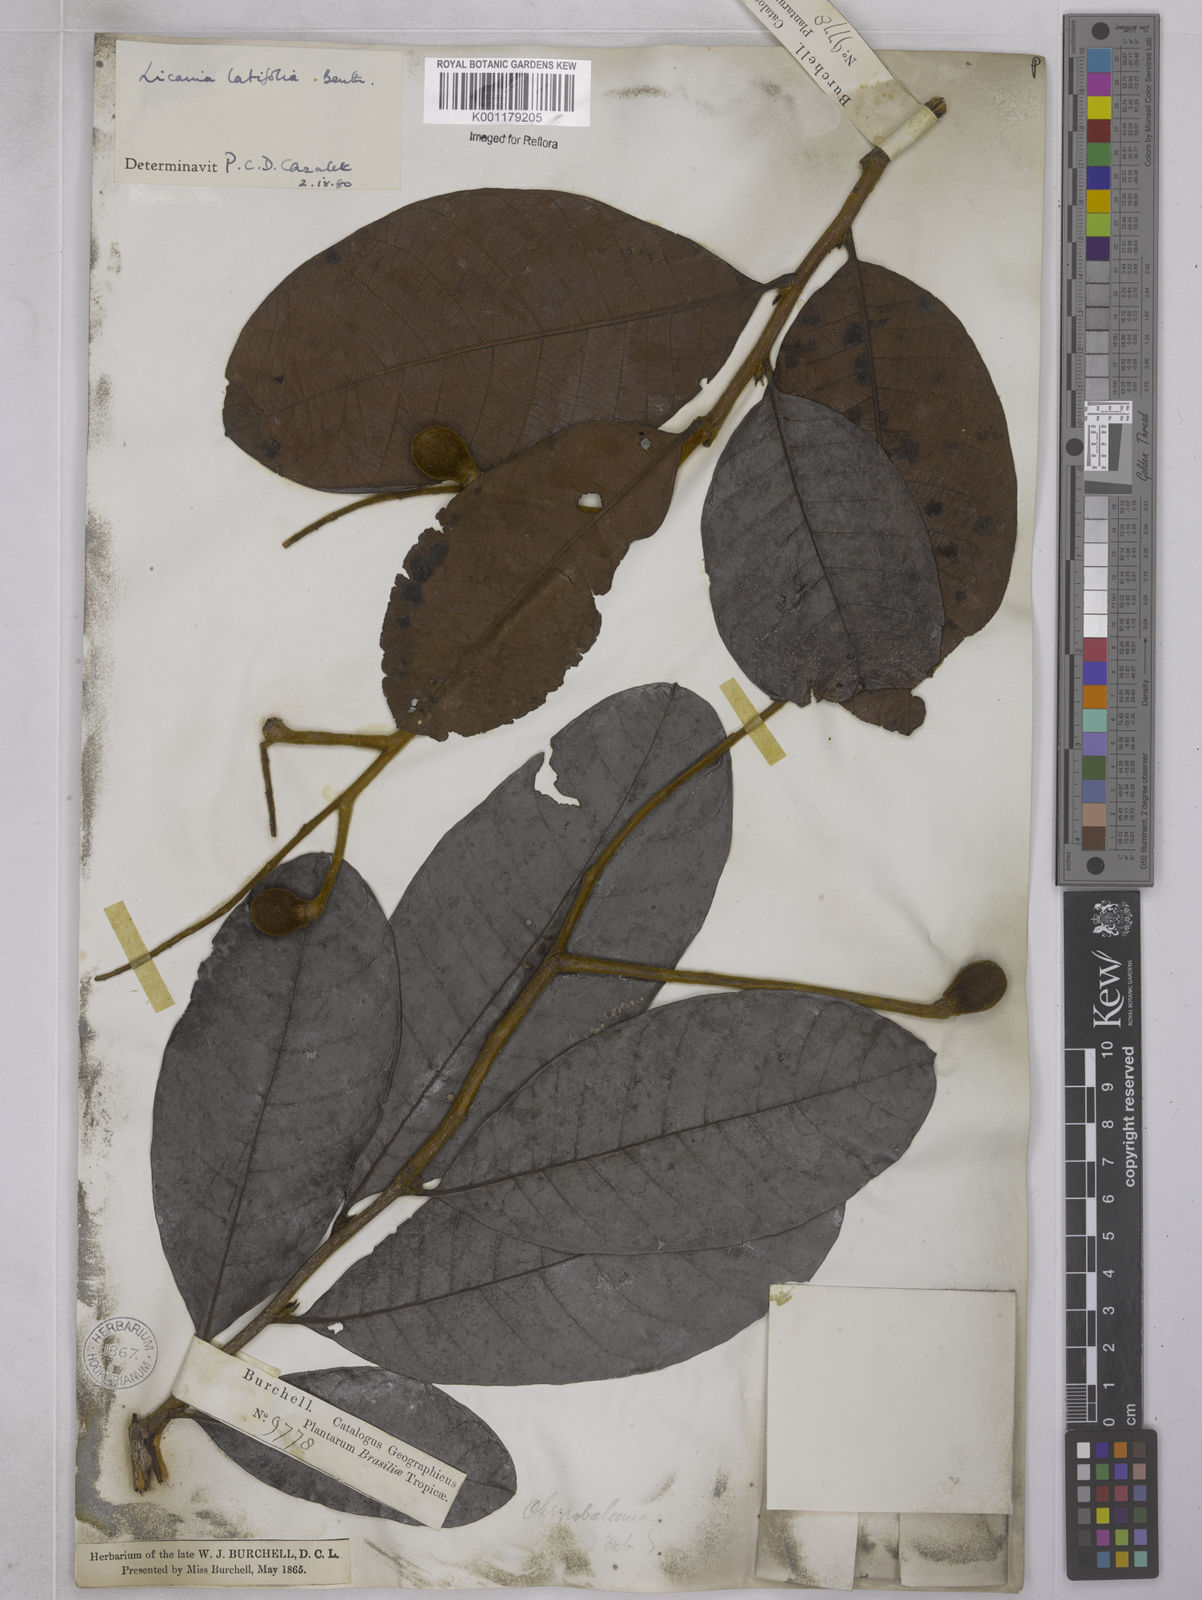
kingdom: Plantae
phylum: Tracheophyta
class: Magnoliopsida
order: Malpighiales
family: Chrysobalanaceae
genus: Hymenopus
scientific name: Hymenopus latifolius
